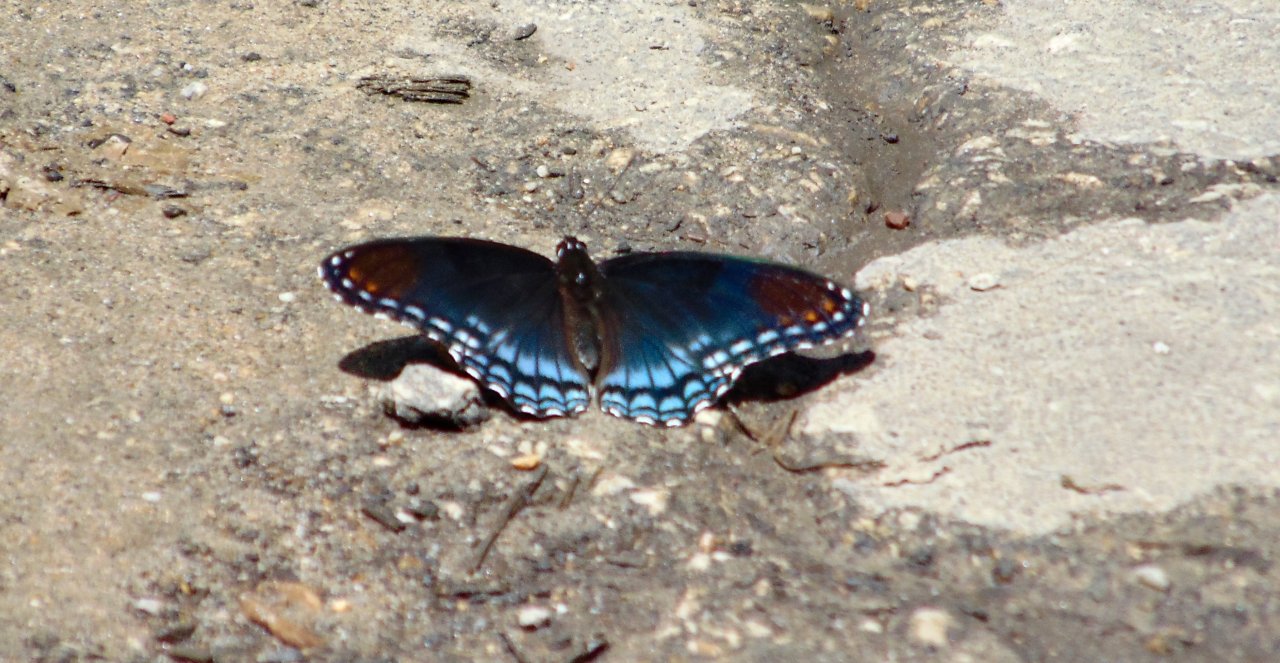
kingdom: Animalia
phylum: Arthropoda
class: Insecta
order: Lepidoptera
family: Nymphalidae
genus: Limenitis
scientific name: Limenitis astyanax
